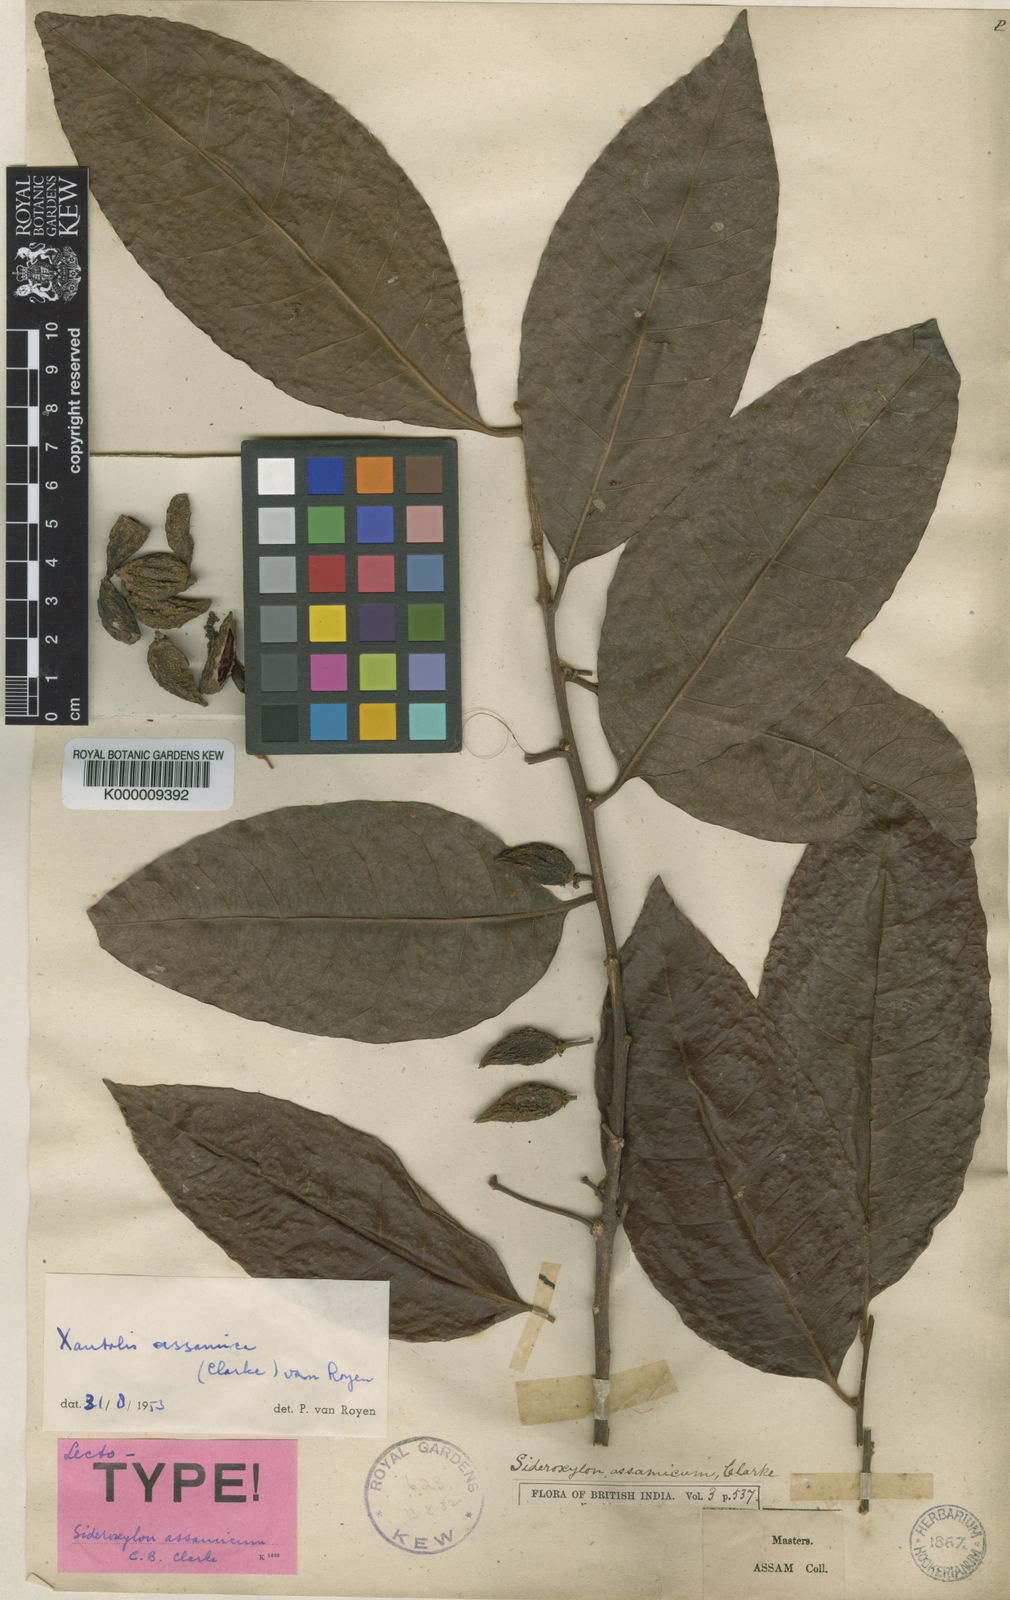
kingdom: Plantae
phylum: Tracheophyta
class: Magnoliopsida
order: Ericales
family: Sapotaceae
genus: Xantolis
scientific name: Xantolis assamica
